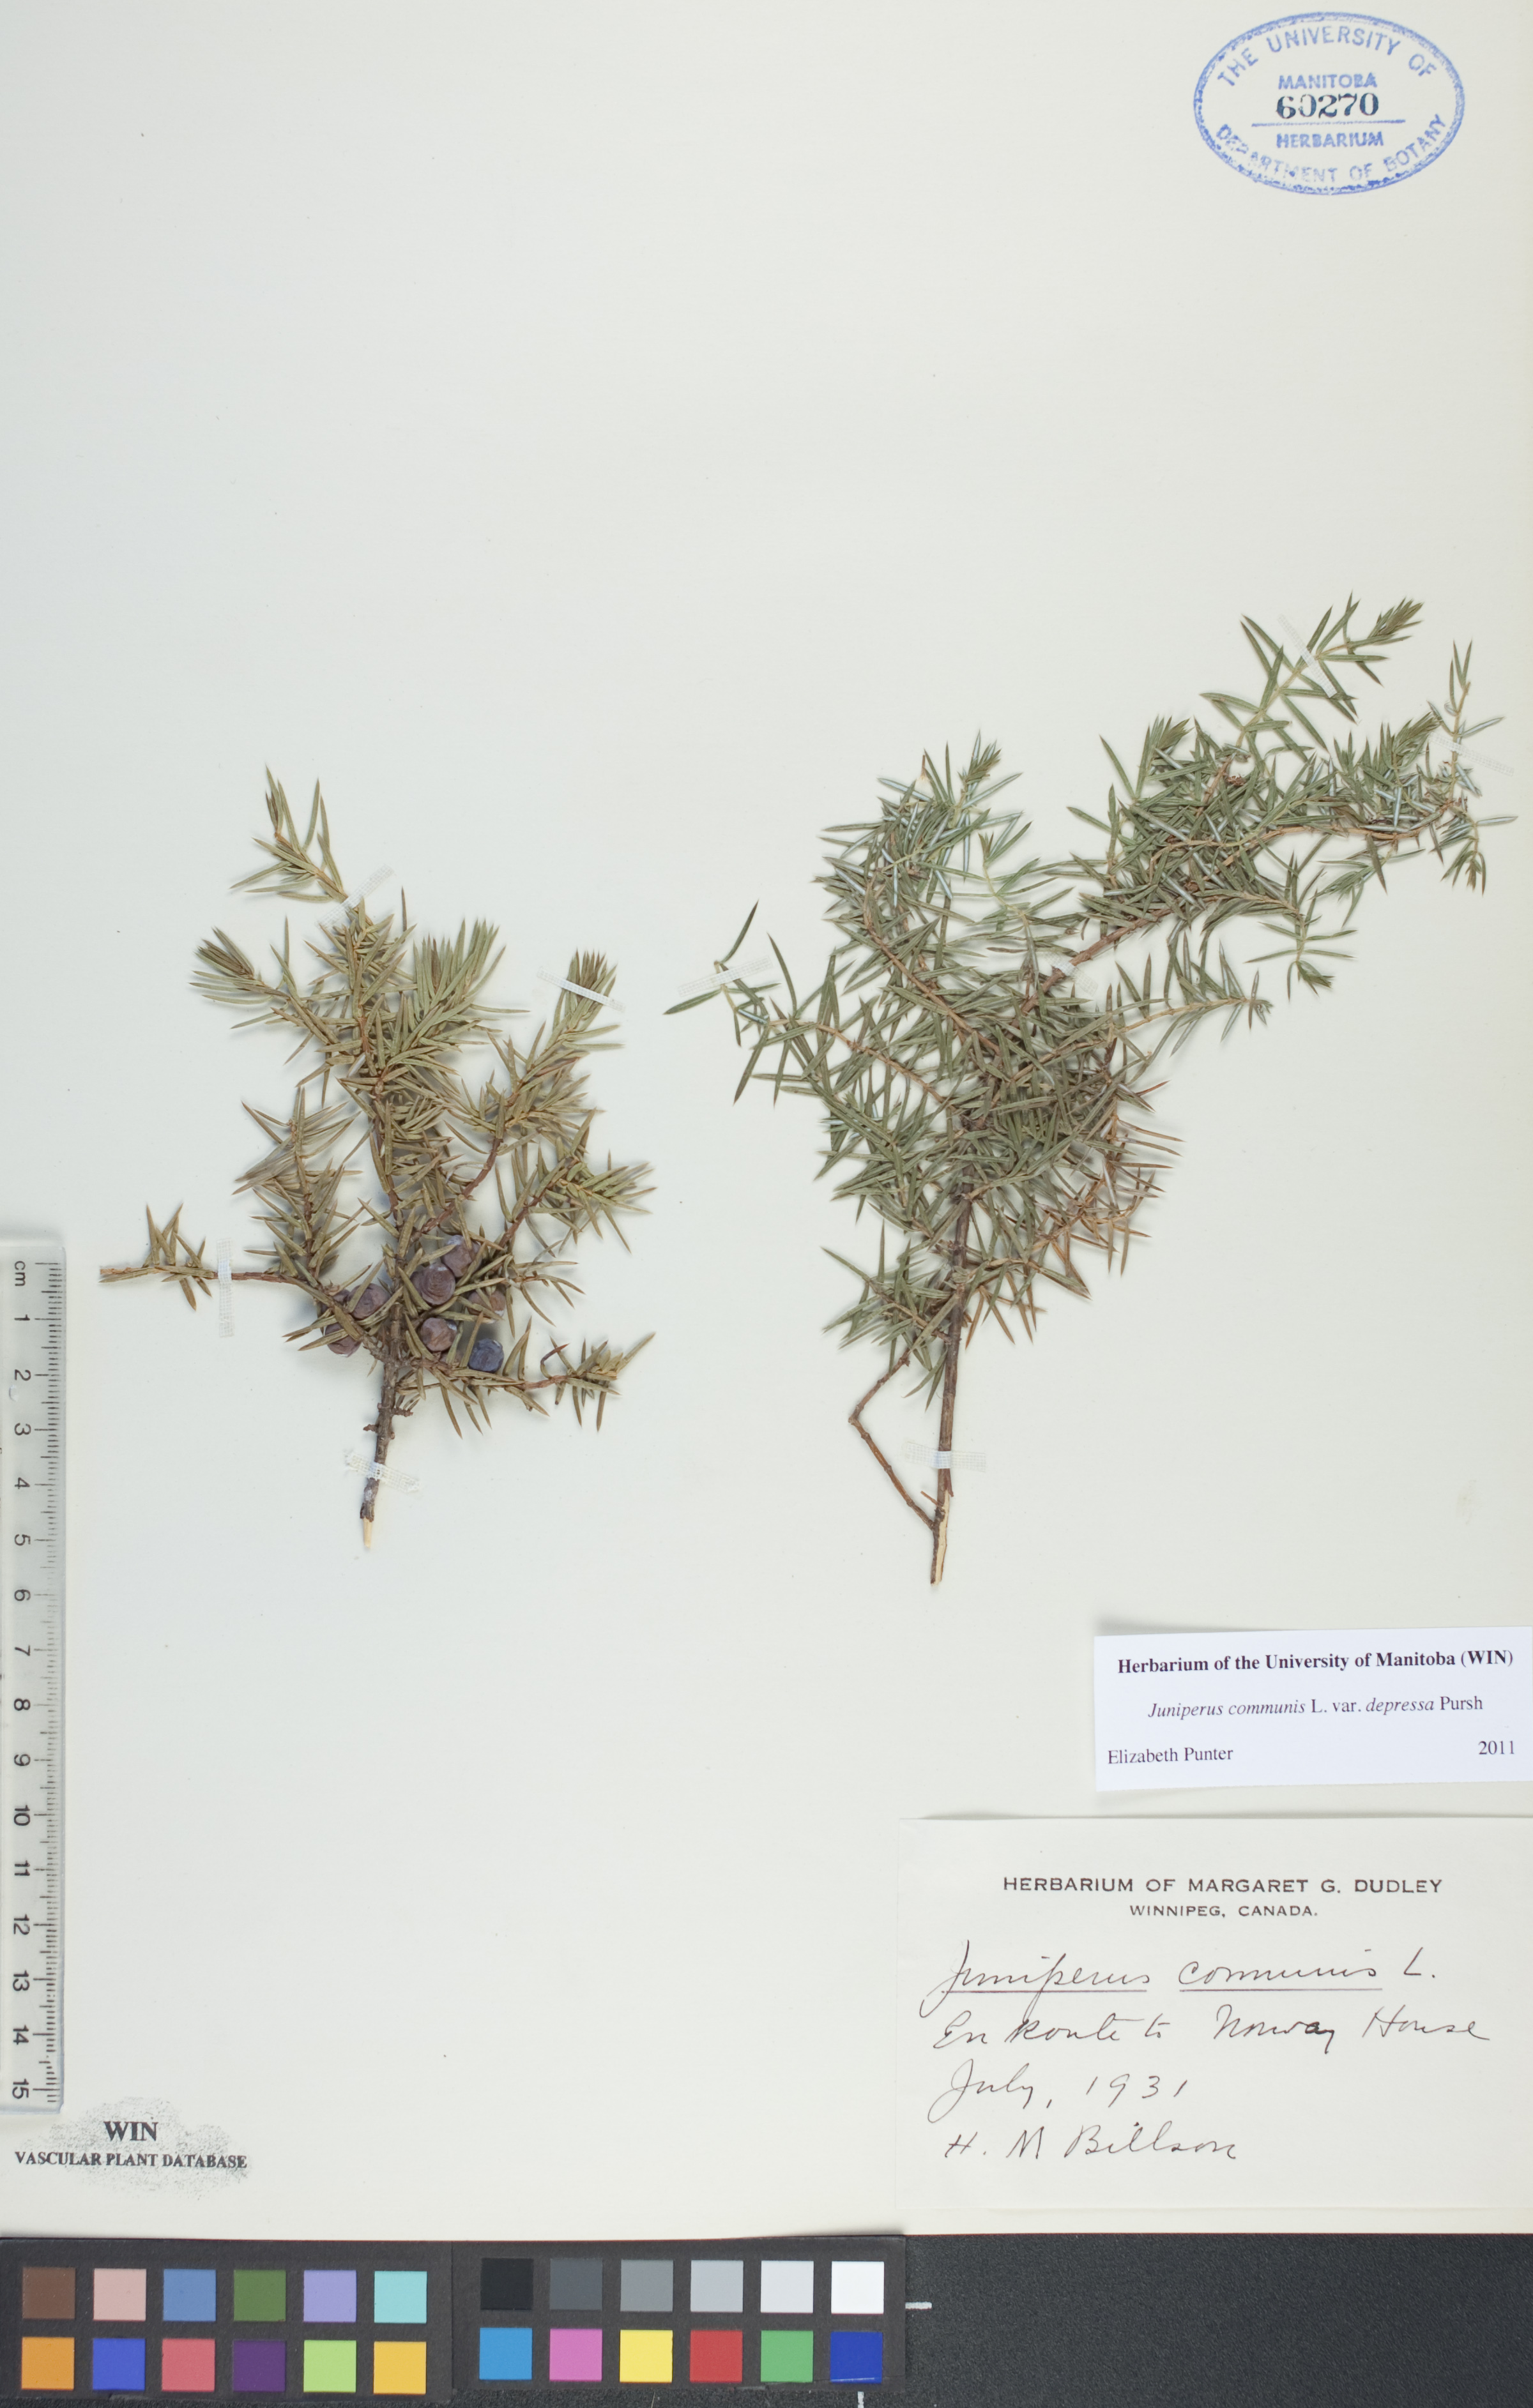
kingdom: Plantae
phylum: Tracheophyta
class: Pinopsida
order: Pinales
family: Cupressaceae
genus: Juniperus
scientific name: Juniperus communis
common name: Common juniper
